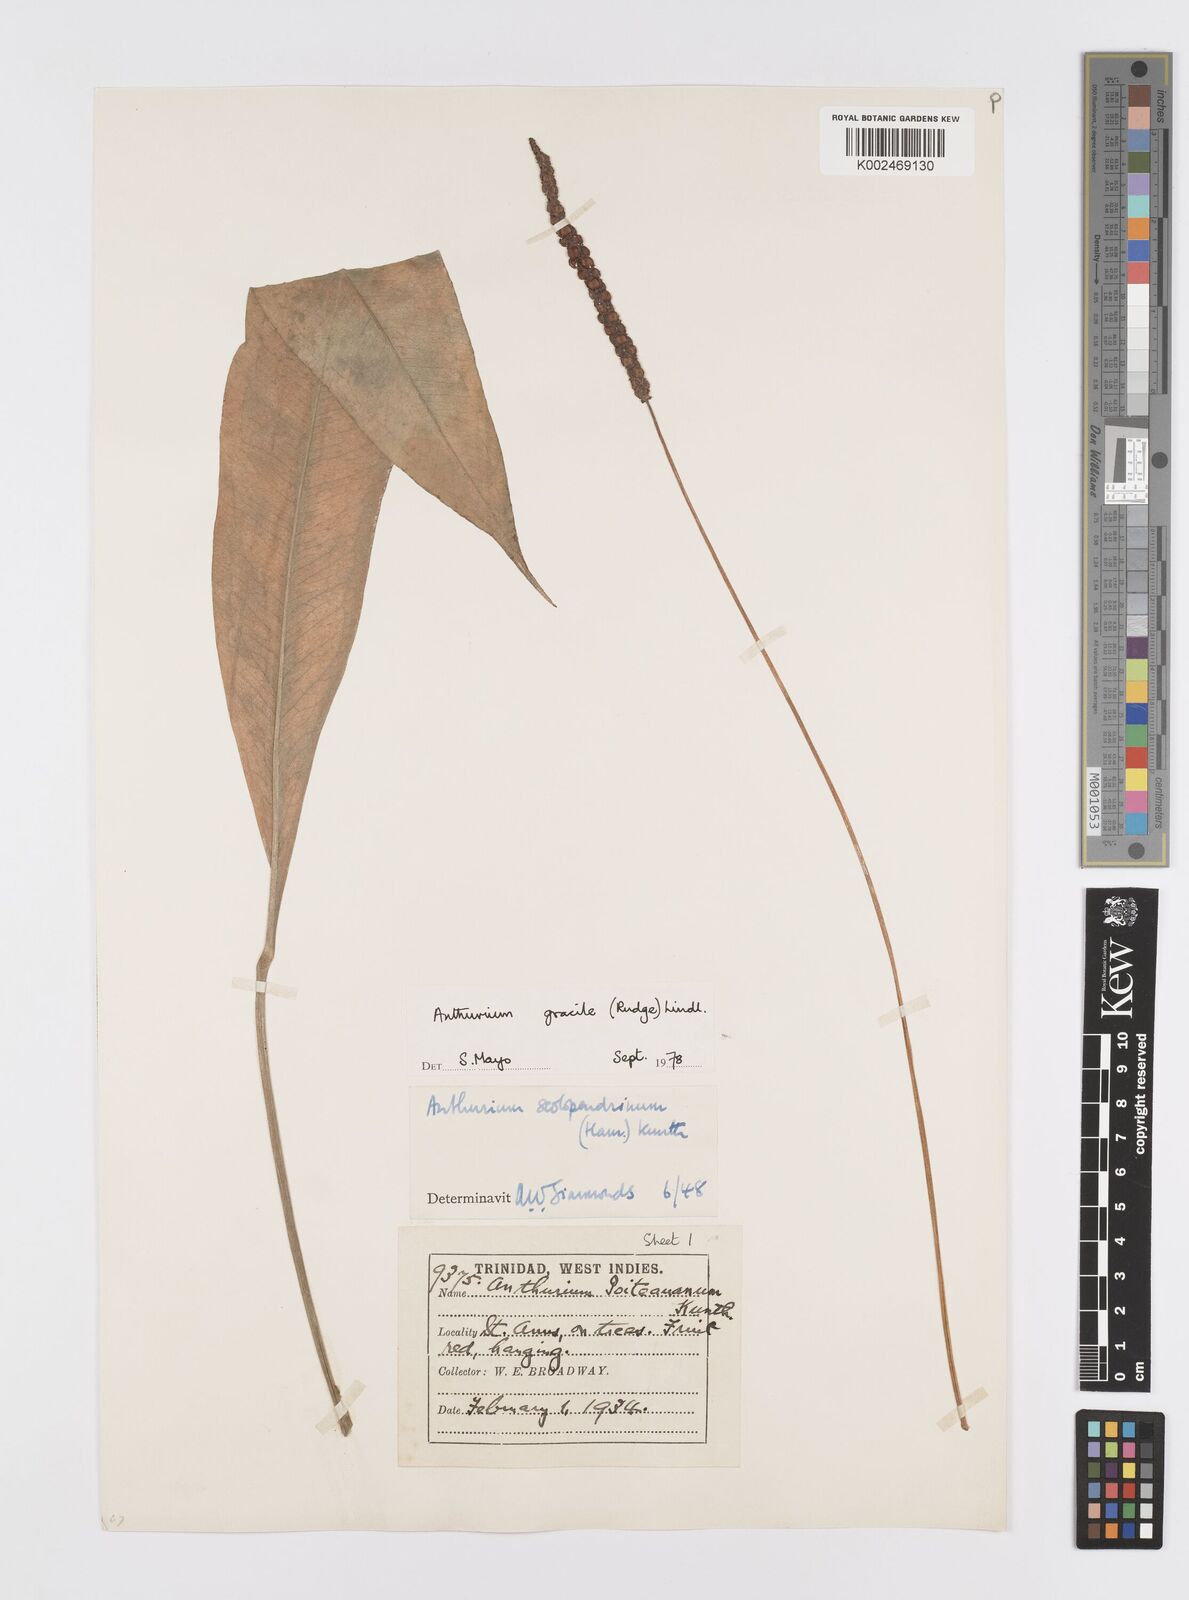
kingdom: Plantae
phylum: Tracheophyta
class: Liliopsida
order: Alismatales
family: Araceae
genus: Anthurium
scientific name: Anthurium gracile
